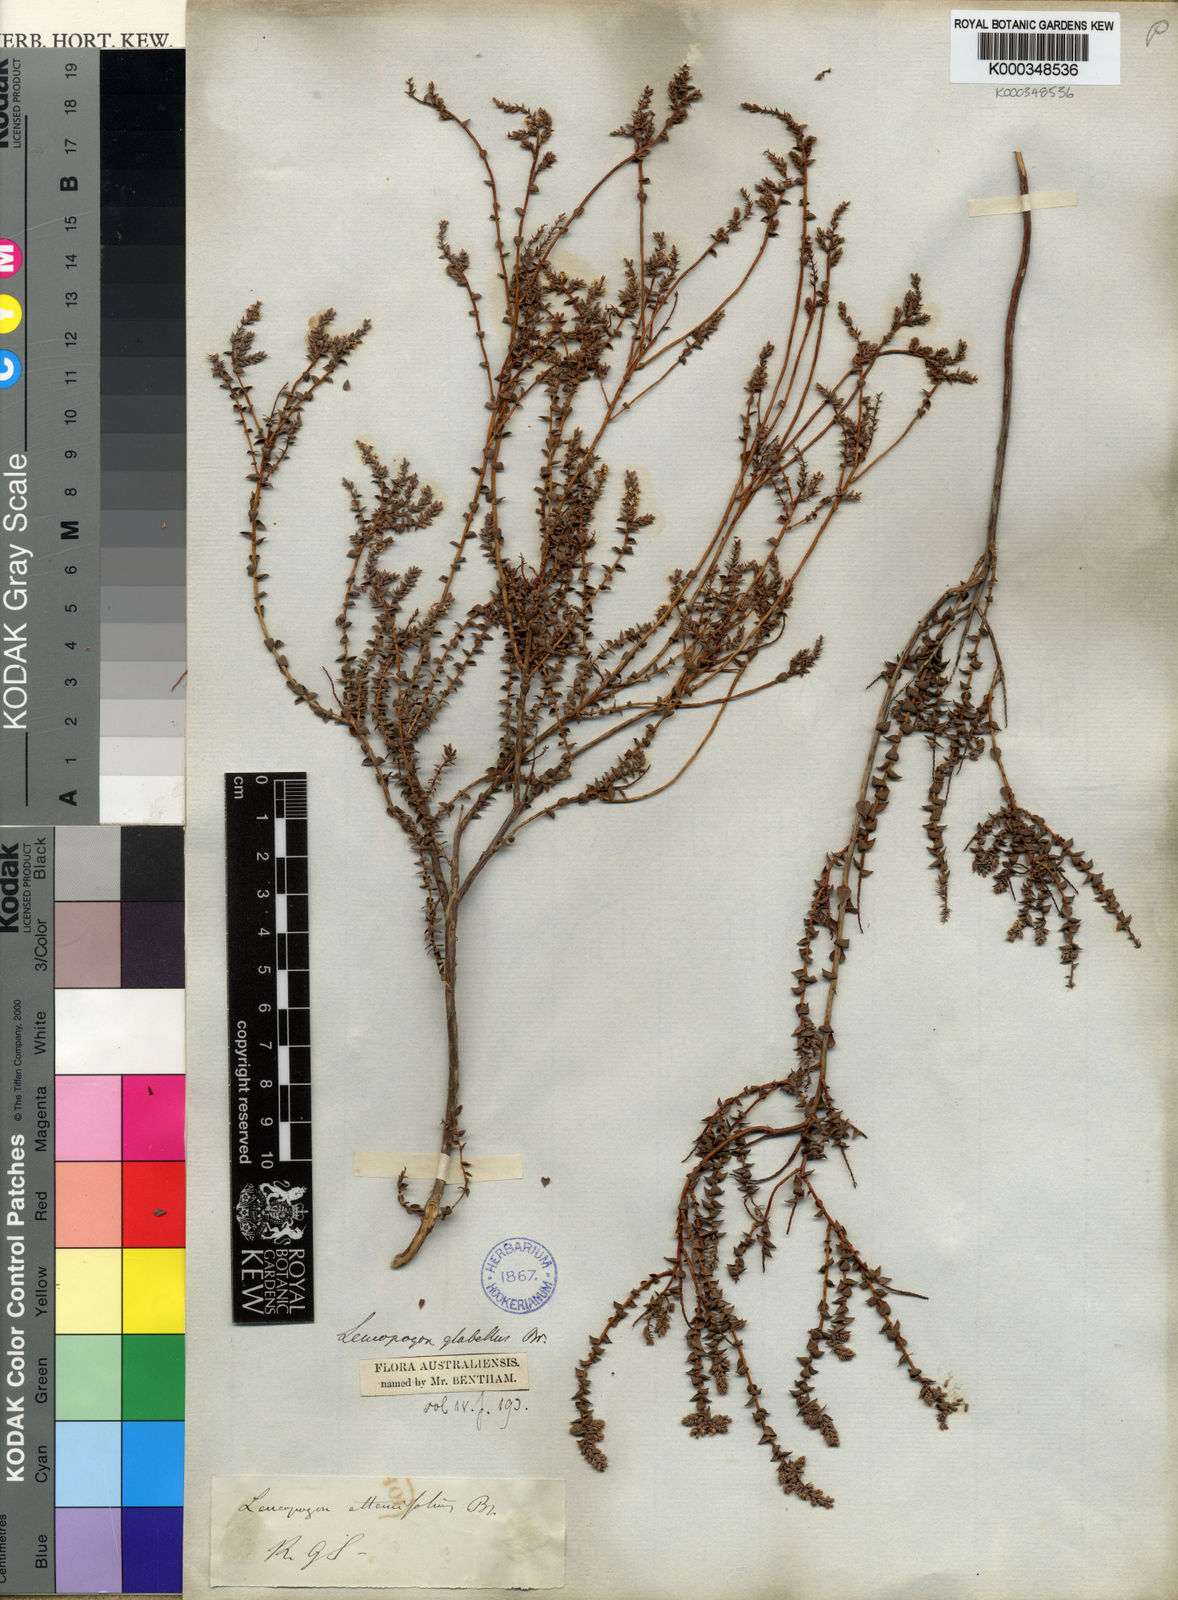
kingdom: Plantae
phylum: Tracheophyta
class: Magnoliopsida
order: Ericales
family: Ericaceae
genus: Leucopogon
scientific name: Leucopogon glabellus
